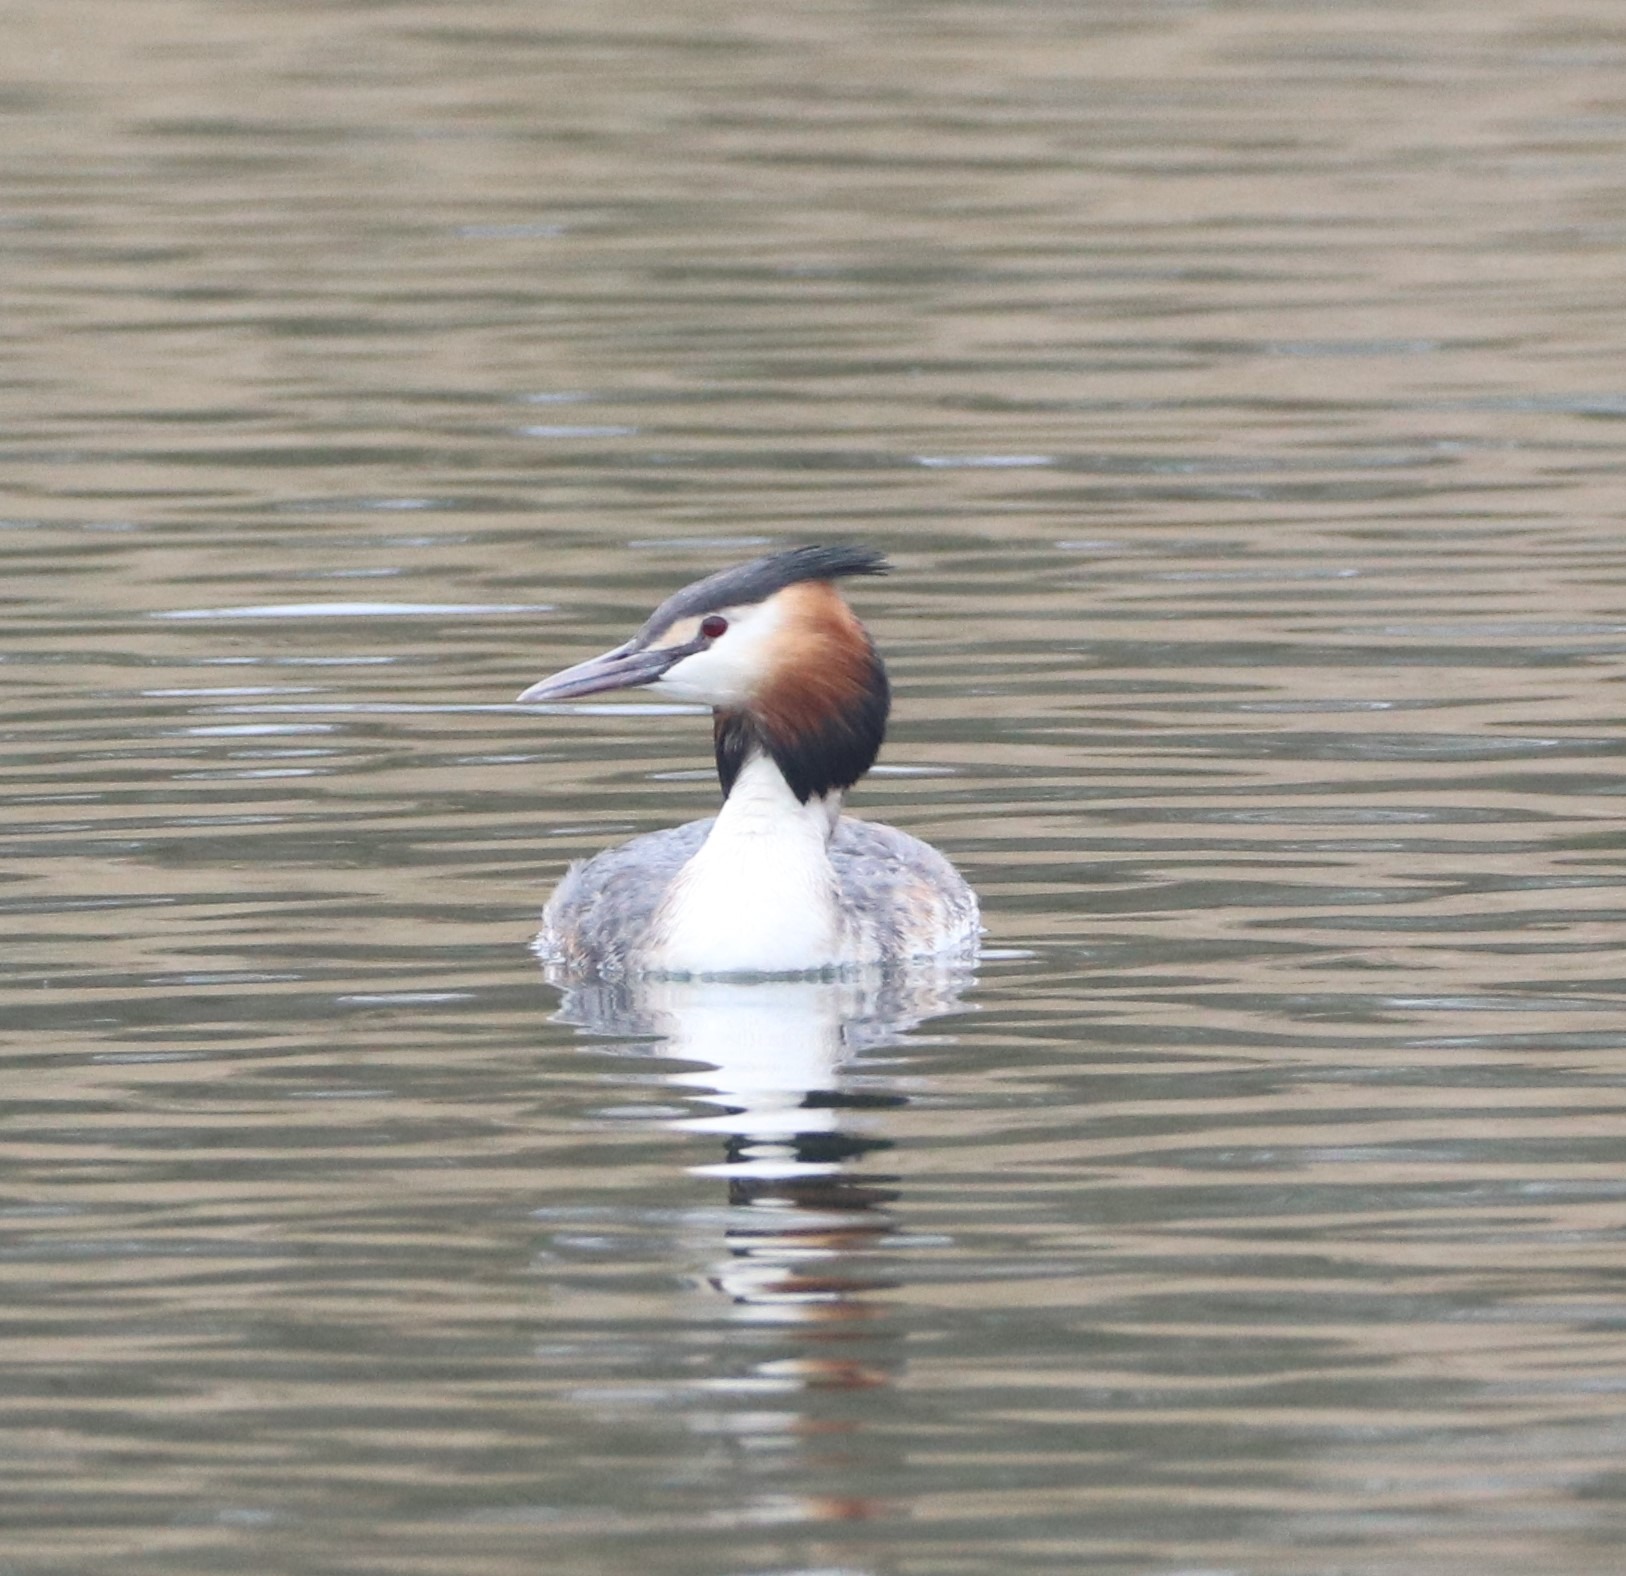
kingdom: Animalia
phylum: Chordata
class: Aves
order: Podicipediformes
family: Podicipedidae
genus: Podiceps
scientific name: Podiceps cristatus
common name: Toppet lappedykker
